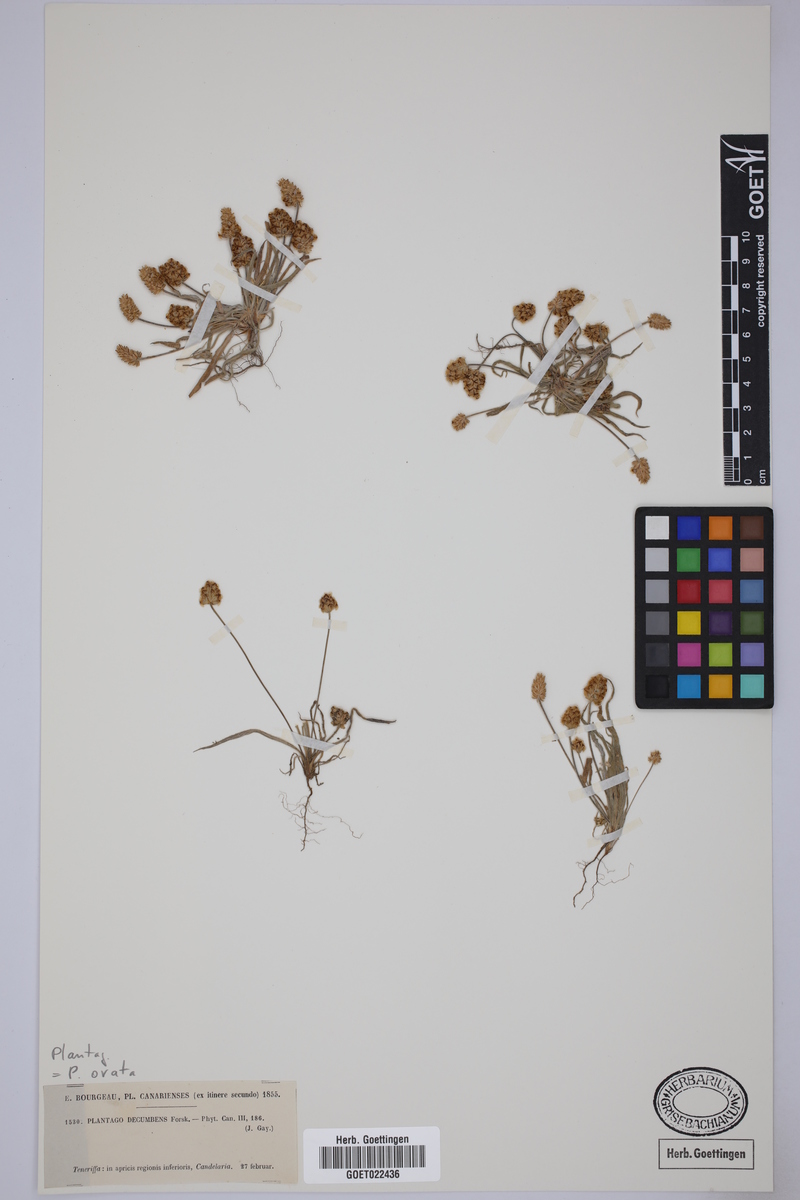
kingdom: Plantae
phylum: Tracheophyta
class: Magnoliopsida
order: Lamiales
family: Plantaginaceae
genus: Plantago
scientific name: Plantago ovata
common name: Blond plantain
